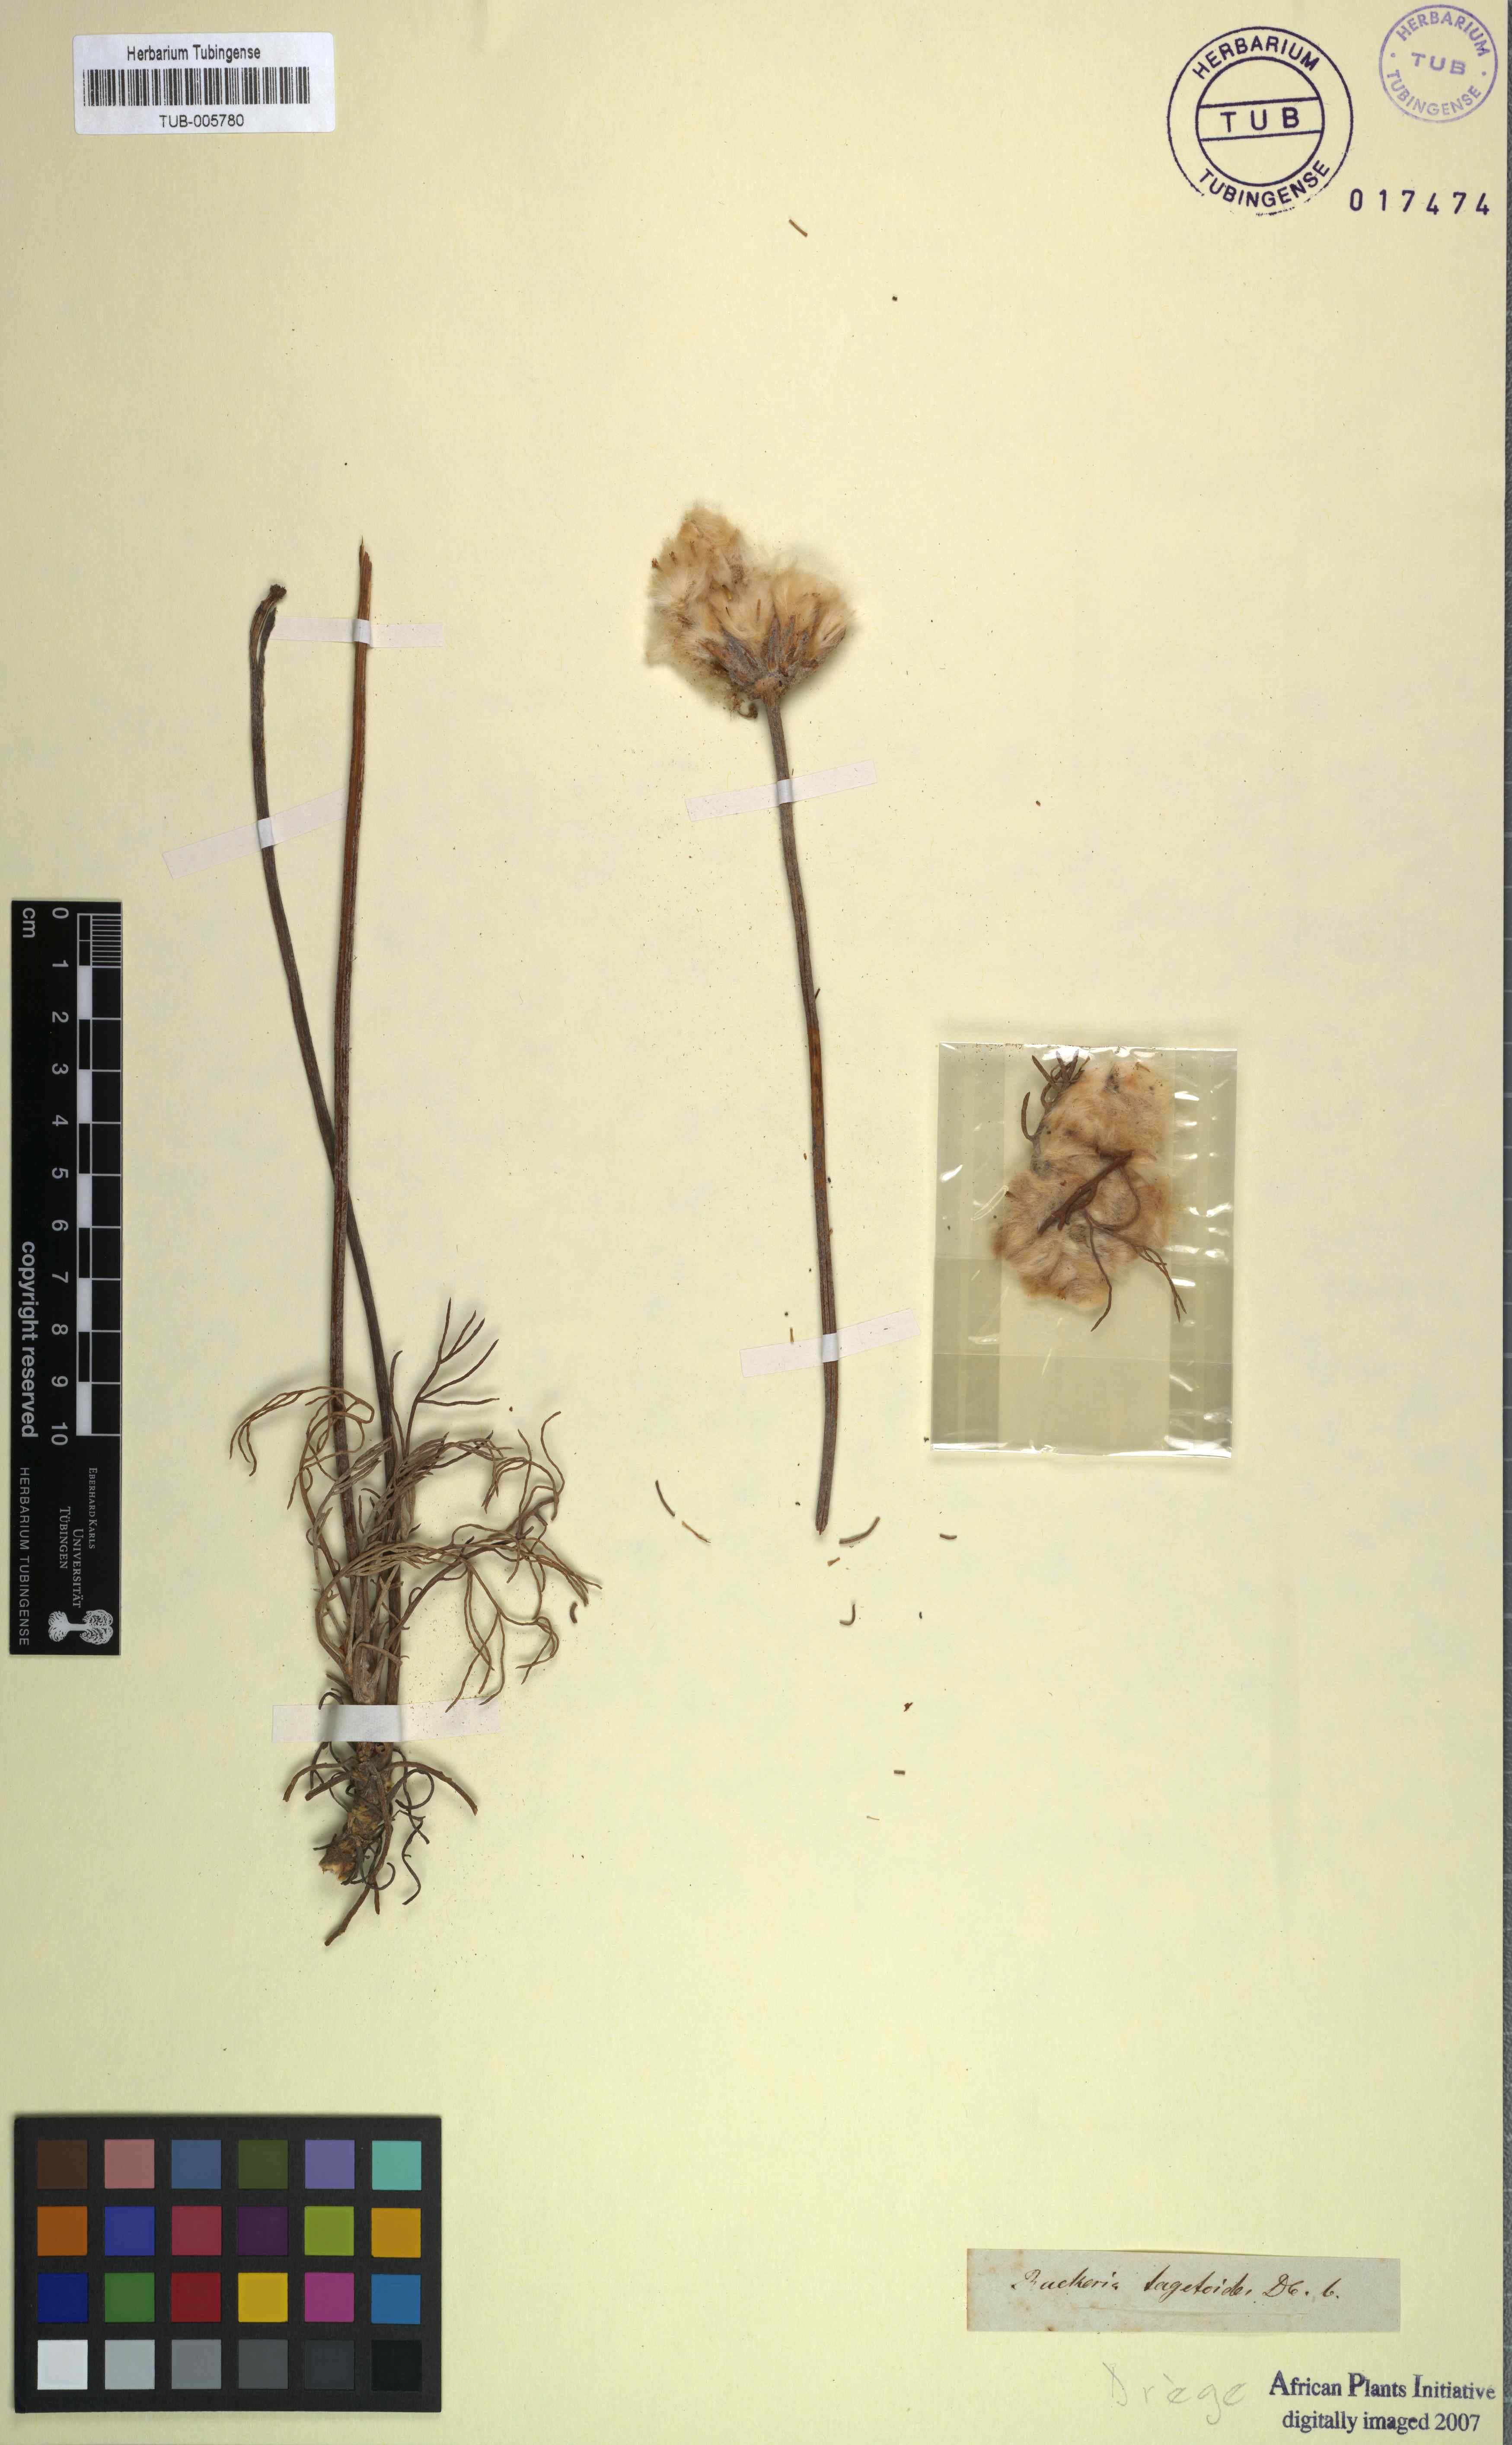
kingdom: Plantae
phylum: Tracheophyta
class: Magnoliopsida
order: Asterales
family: Asteraceae
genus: Euryops
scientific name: Euryops tagetoides
